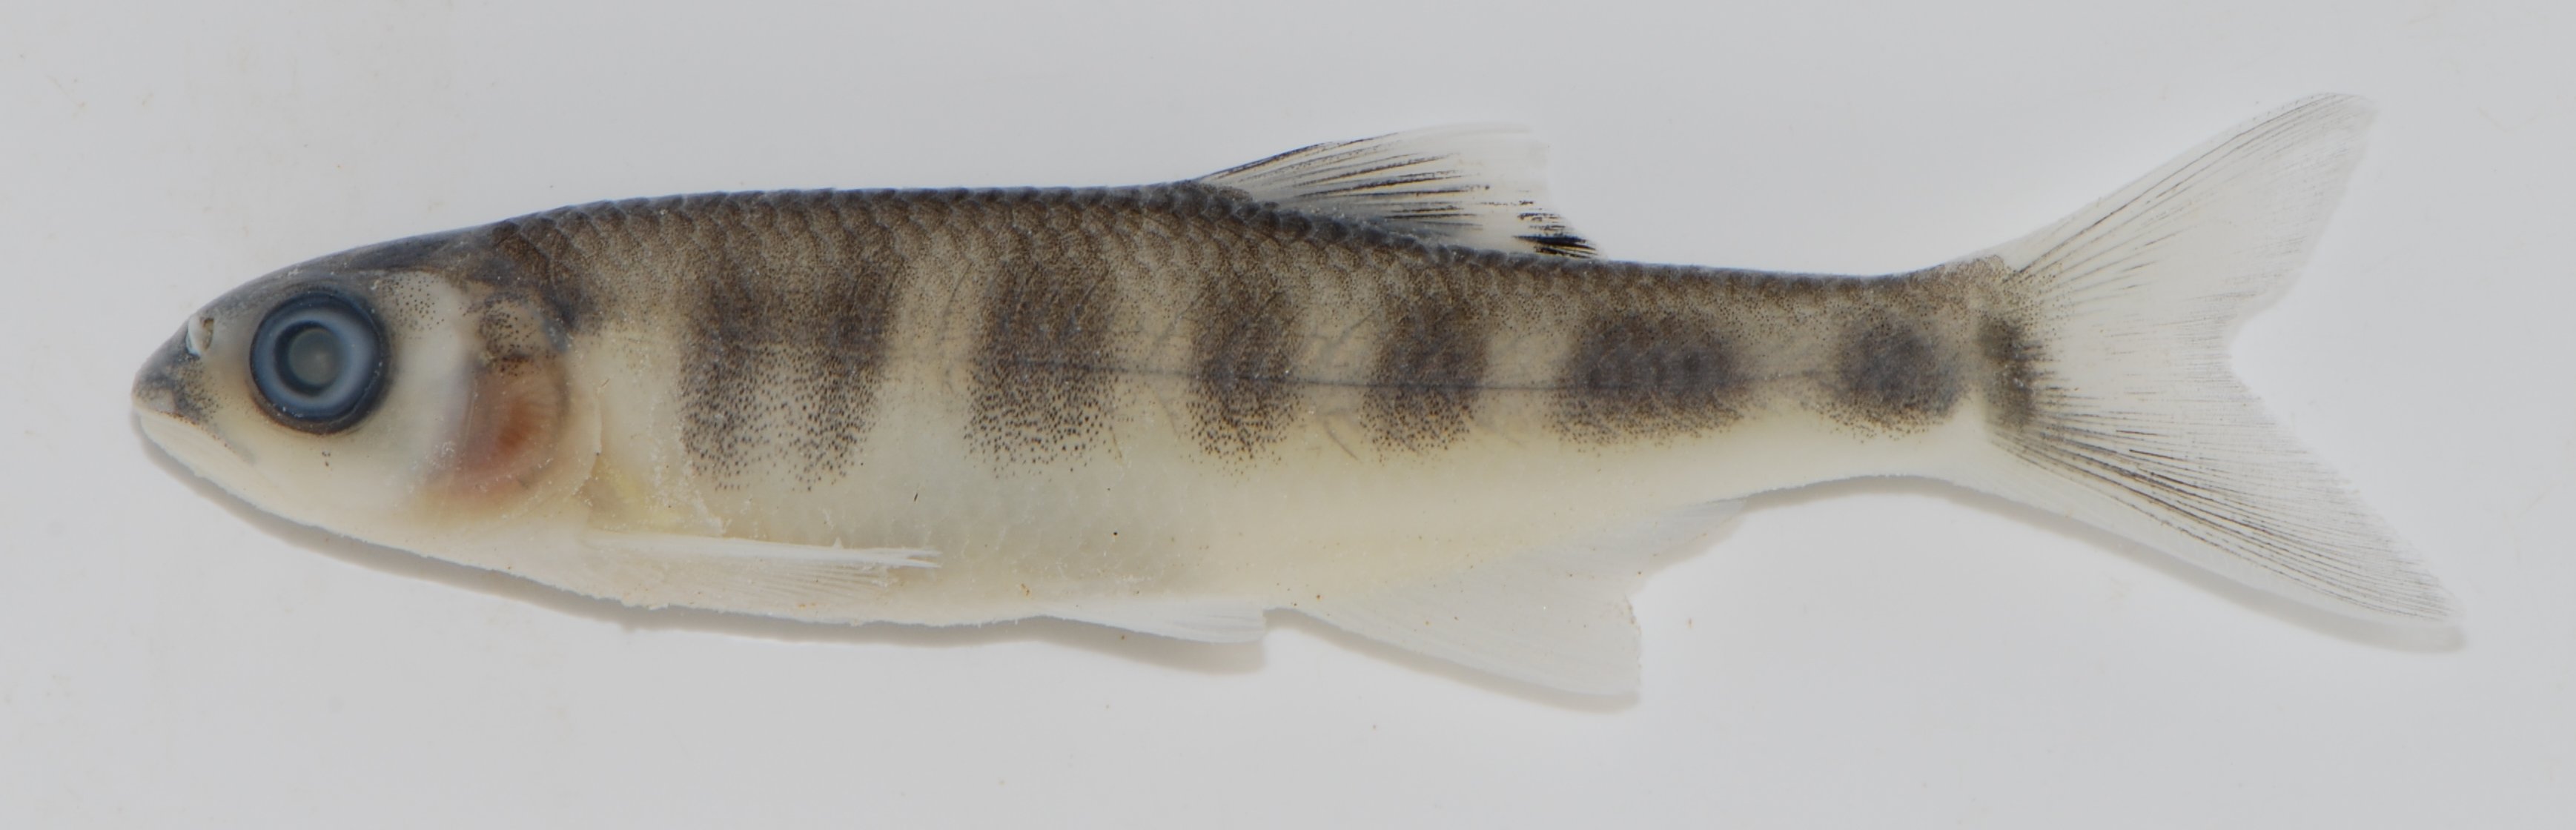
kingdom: Animalia
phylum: Chordata
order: Cypriniformes
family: Cyprinidae
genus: Opsaridium
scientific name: Opsaridium
